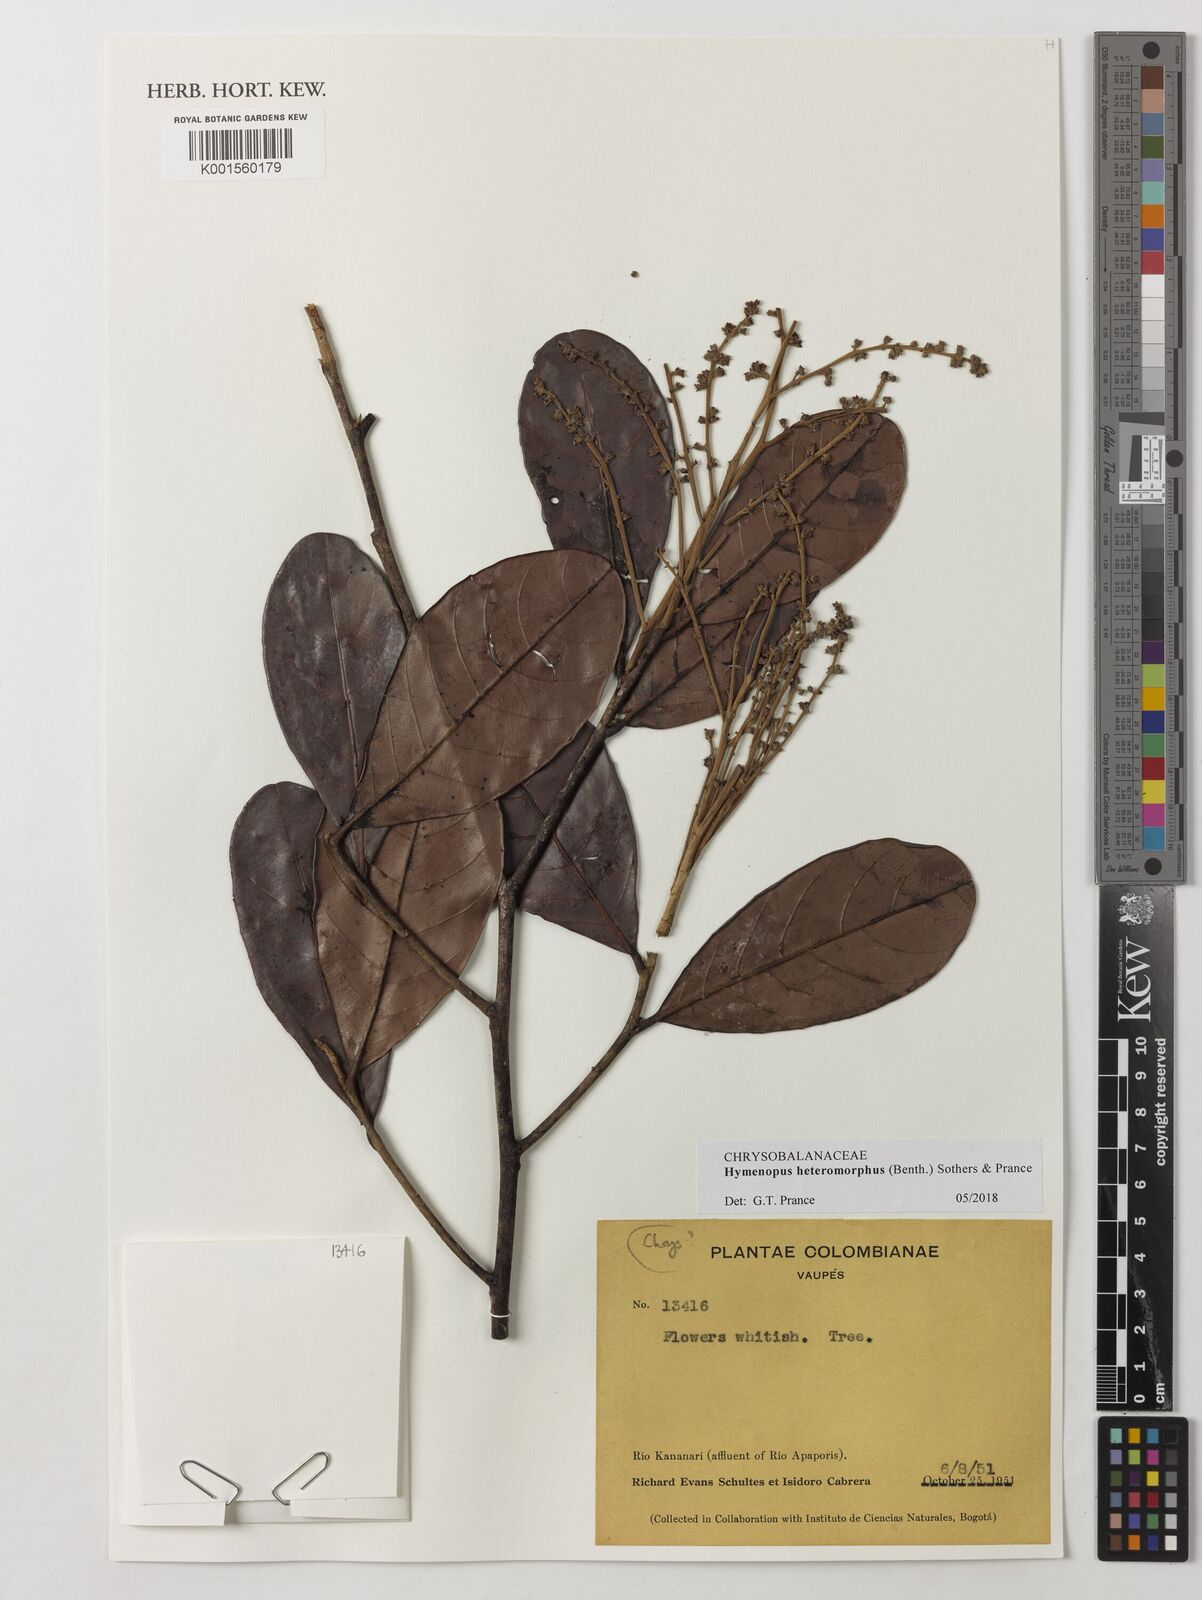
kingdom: Plantae
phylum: Tracheophyta
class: Magnoliopsida
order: Malpighiales
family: Chrysobalanaceae
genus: Hymenopus
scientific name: Hymenopus heteromorphus
